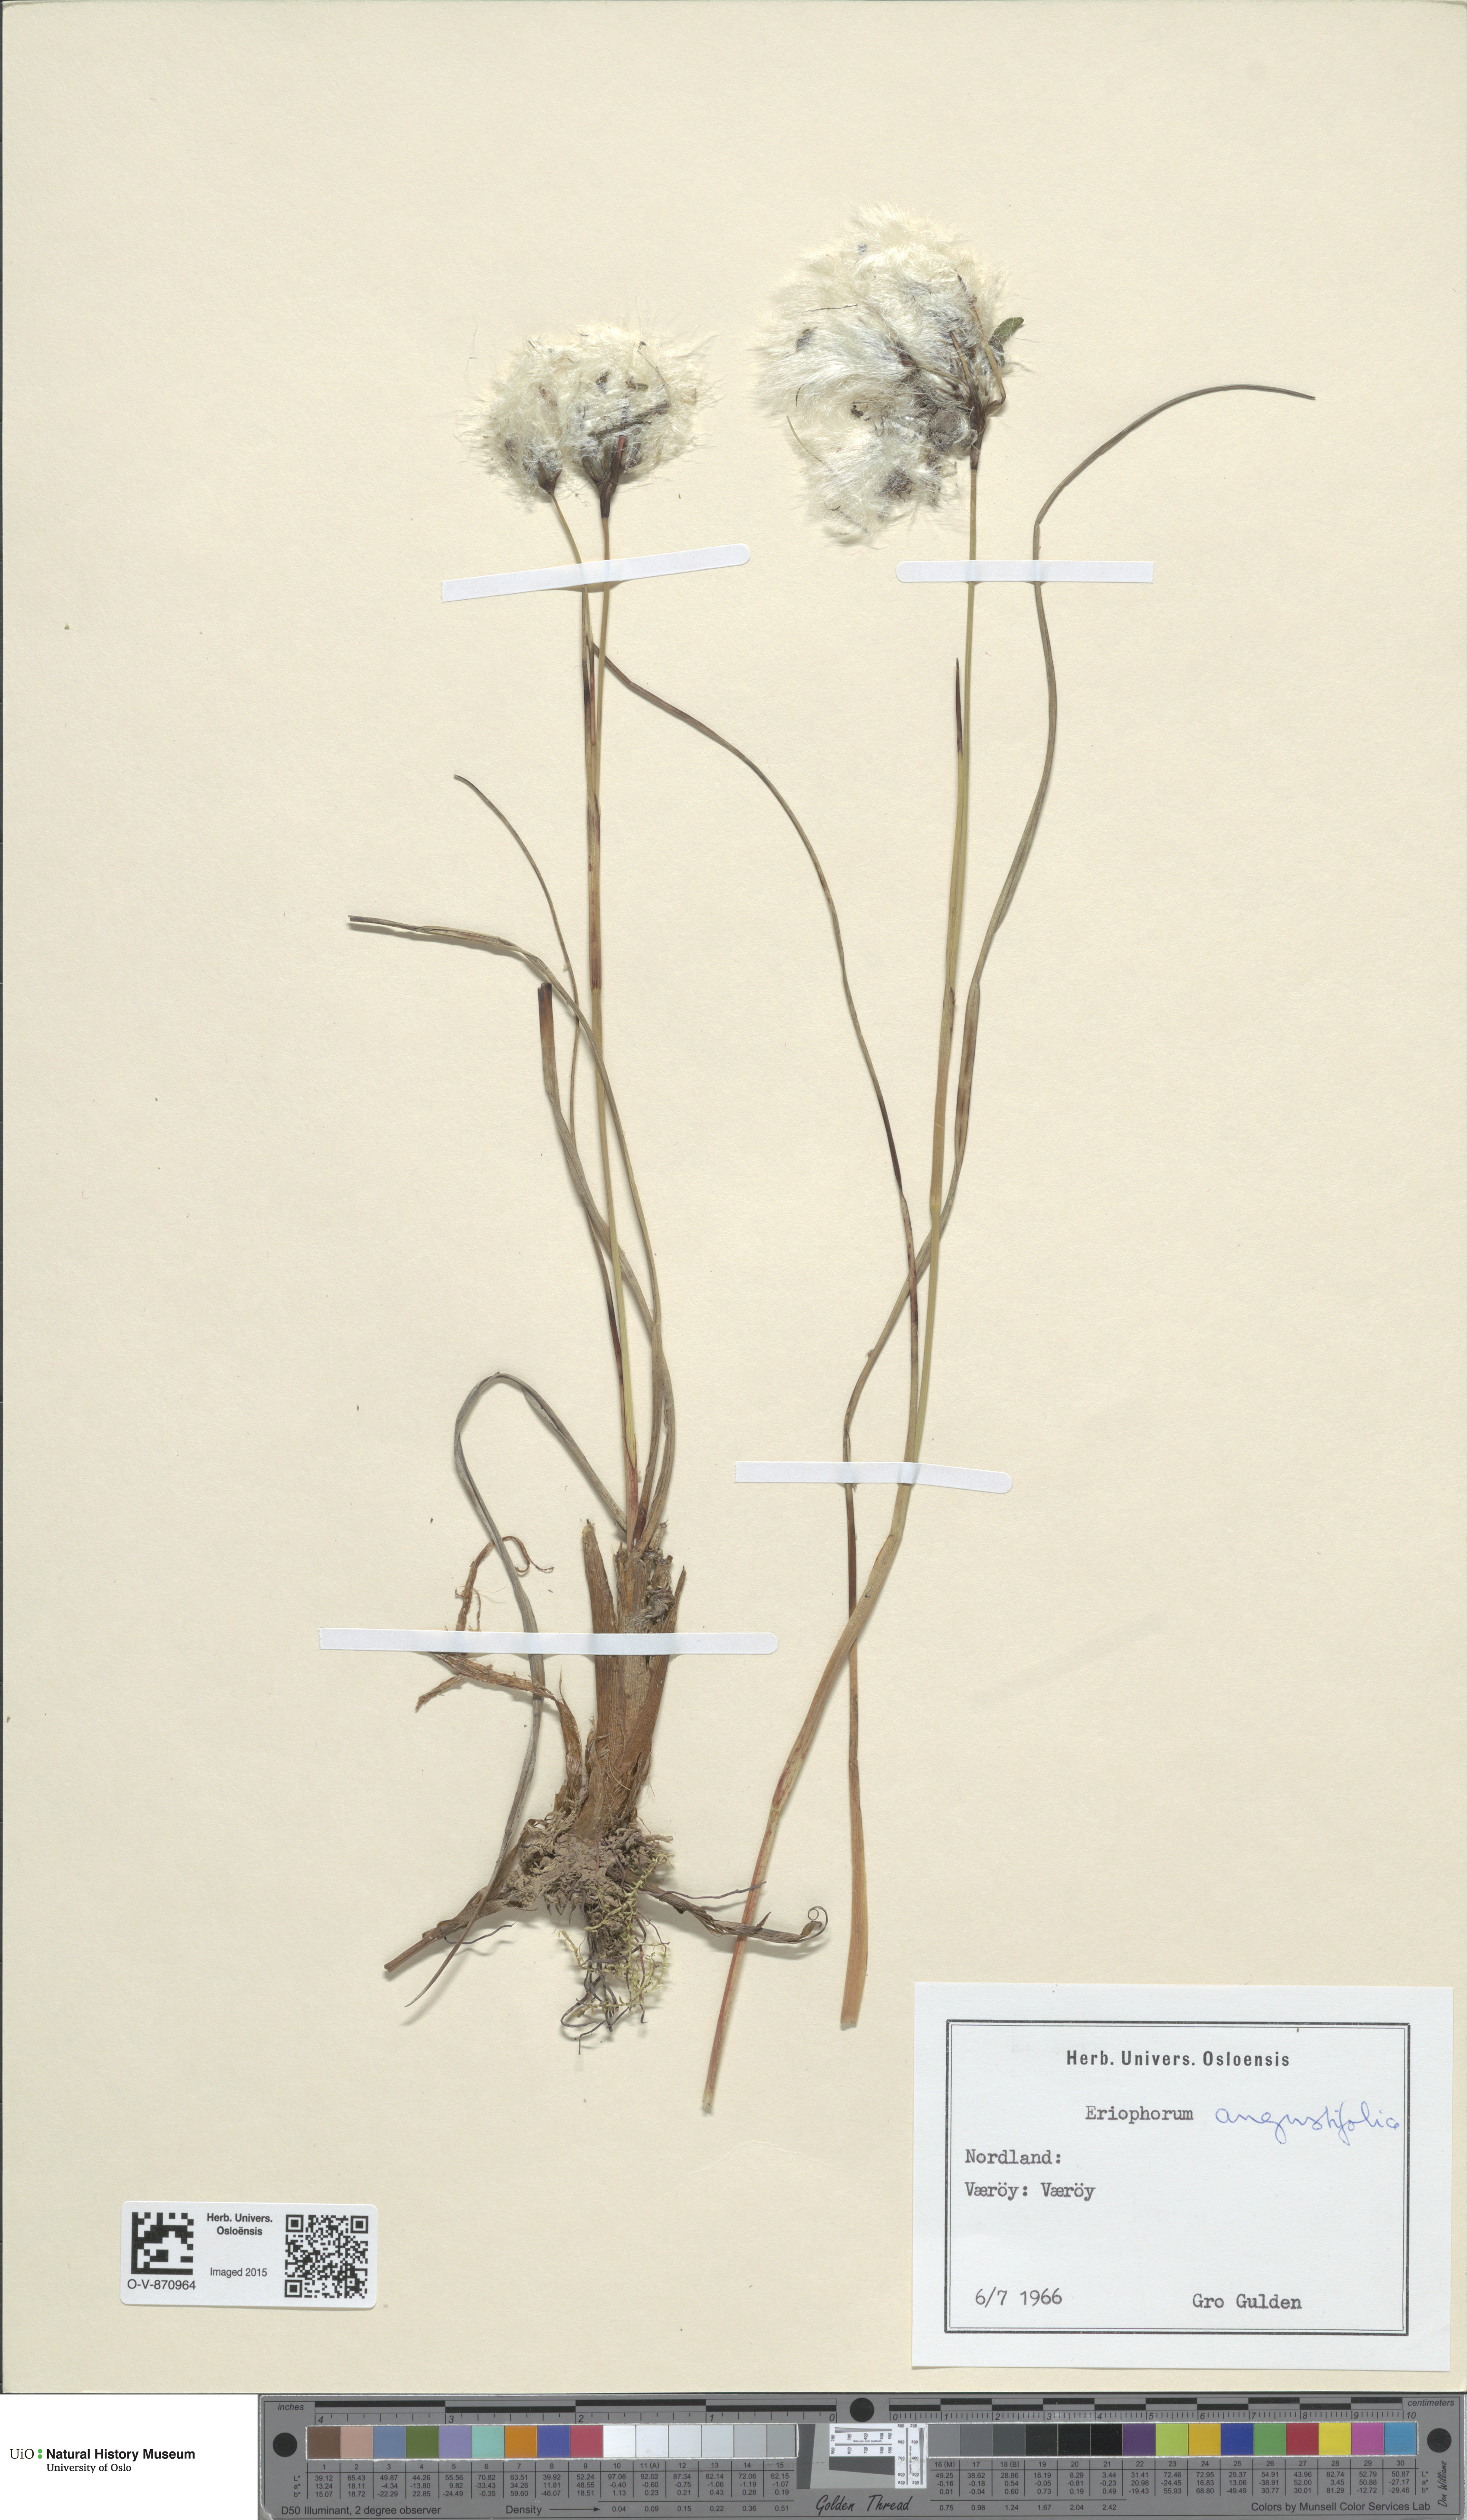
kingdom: Plantae
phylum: Tracheophyta
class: Liliopsida
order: Poales
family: Cyperaceae
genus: Eriophorum
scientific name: Eriophorum angustifolium
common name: Common cottongrass
